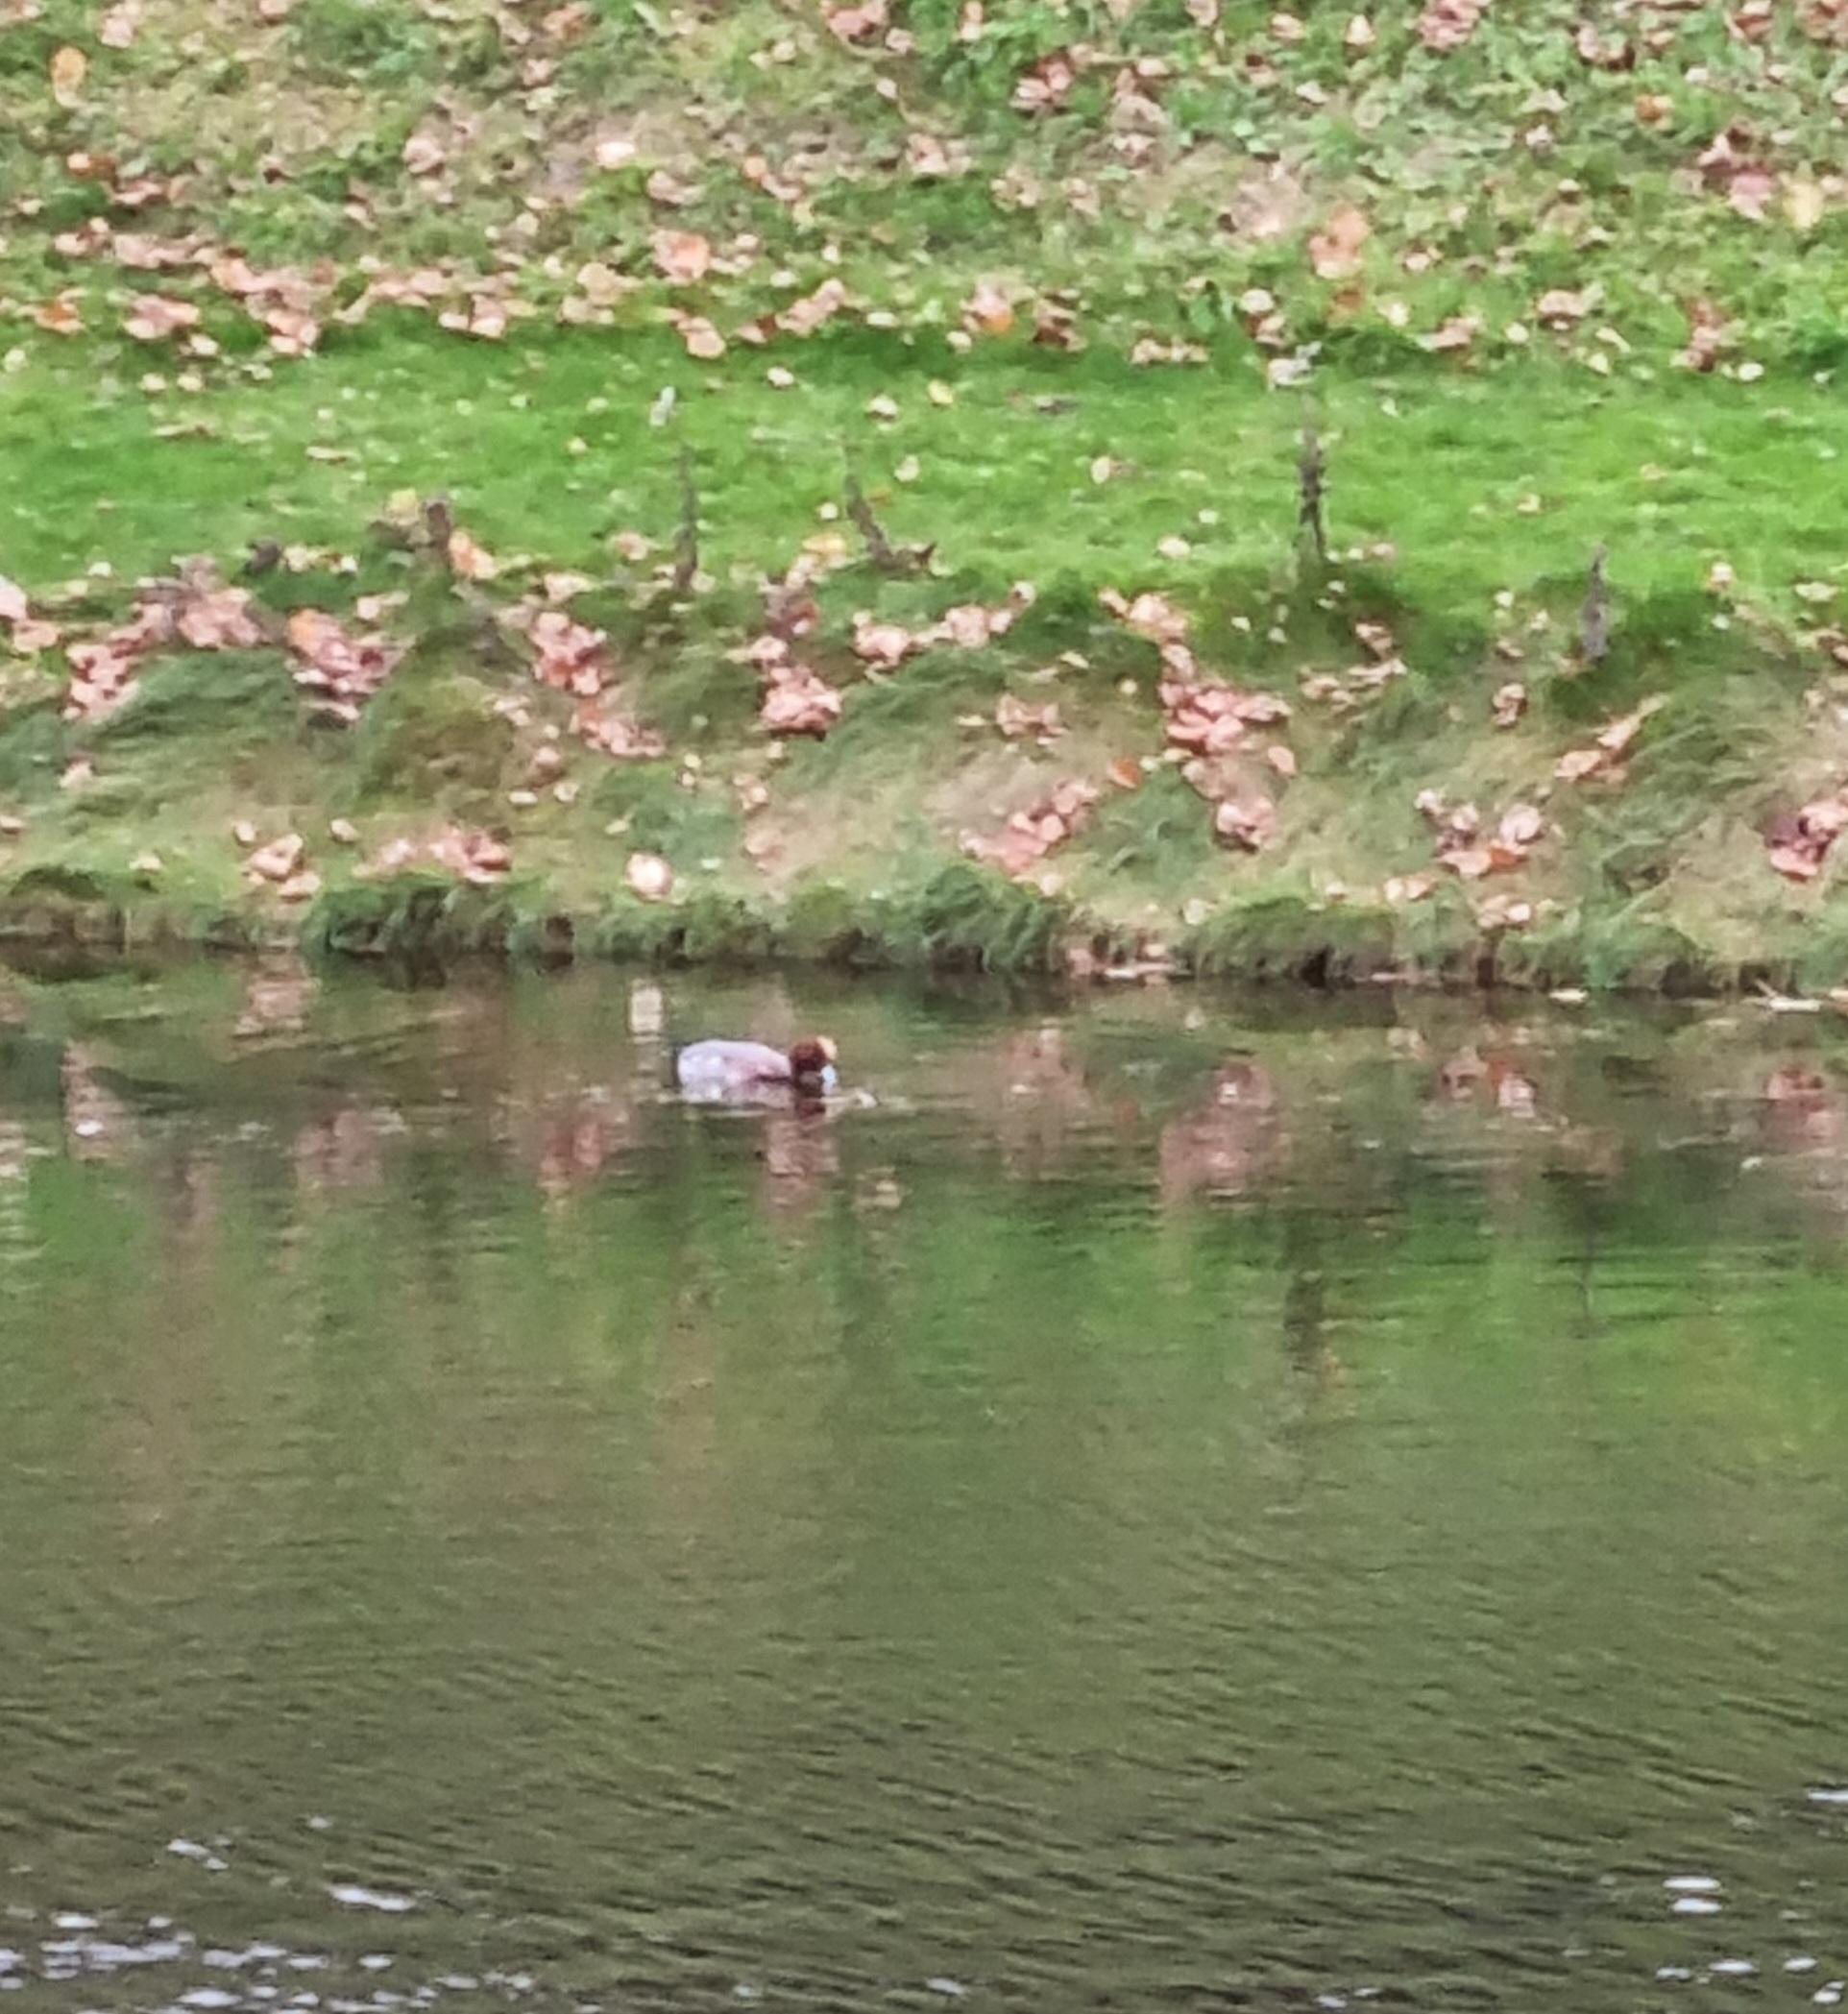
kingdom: Animalia
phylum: Chordata
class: Aves
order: Anseriformes
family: Anatidae
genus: Mareca
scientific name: Mareca penelope
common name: Pibeand
